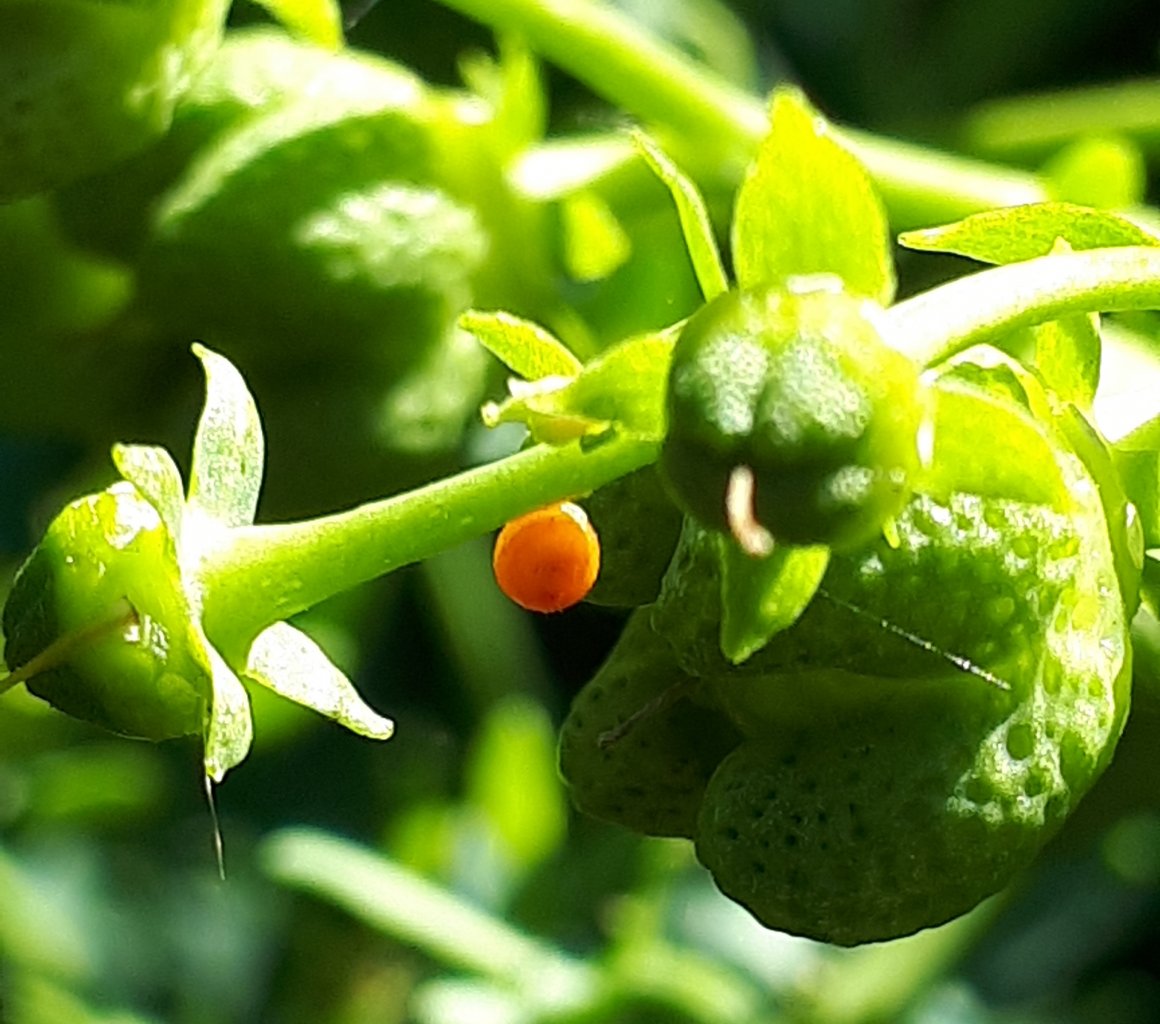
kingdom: Animalia
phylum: Arthropoda
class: Insecta
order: Lepidoptera
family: Papilionidae
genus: Papilio
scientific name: Papilio cresphontes
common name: Eastern Giant Swallowtail
